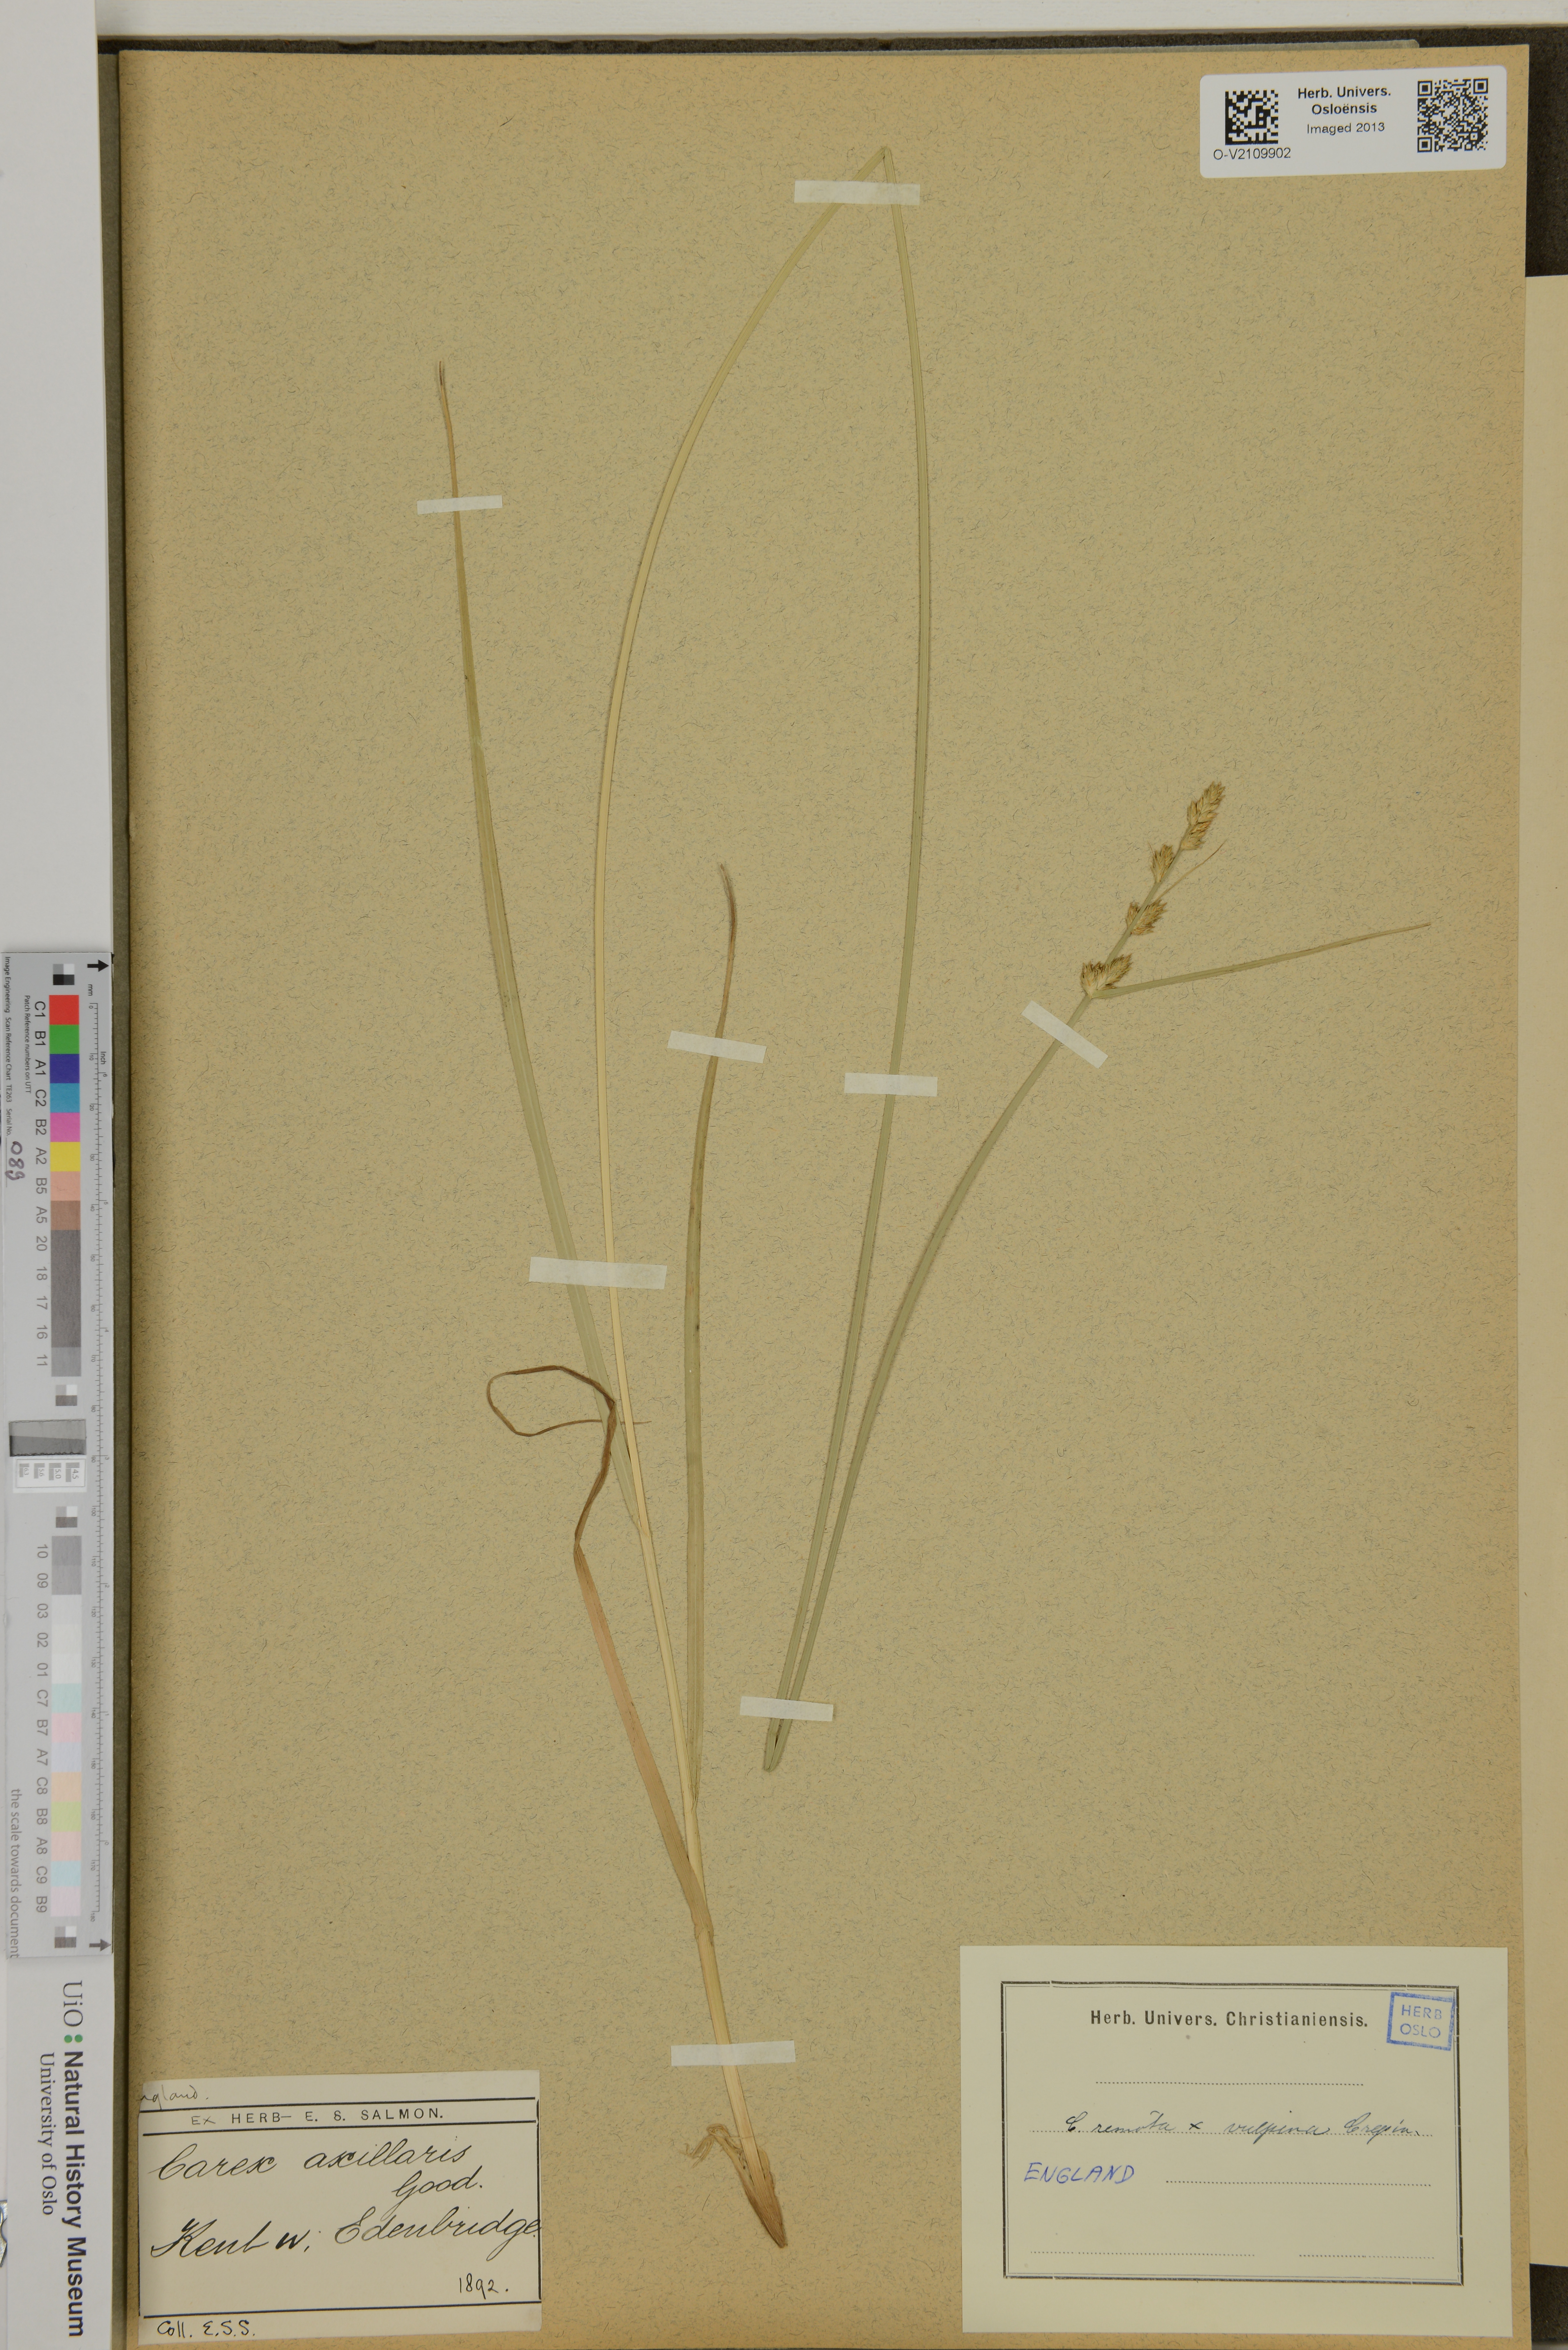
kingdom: Plantae
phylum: Tracheophyta
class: Liliopsida
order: Poales
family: Cyperaceae
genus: Carex
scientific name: Carex
